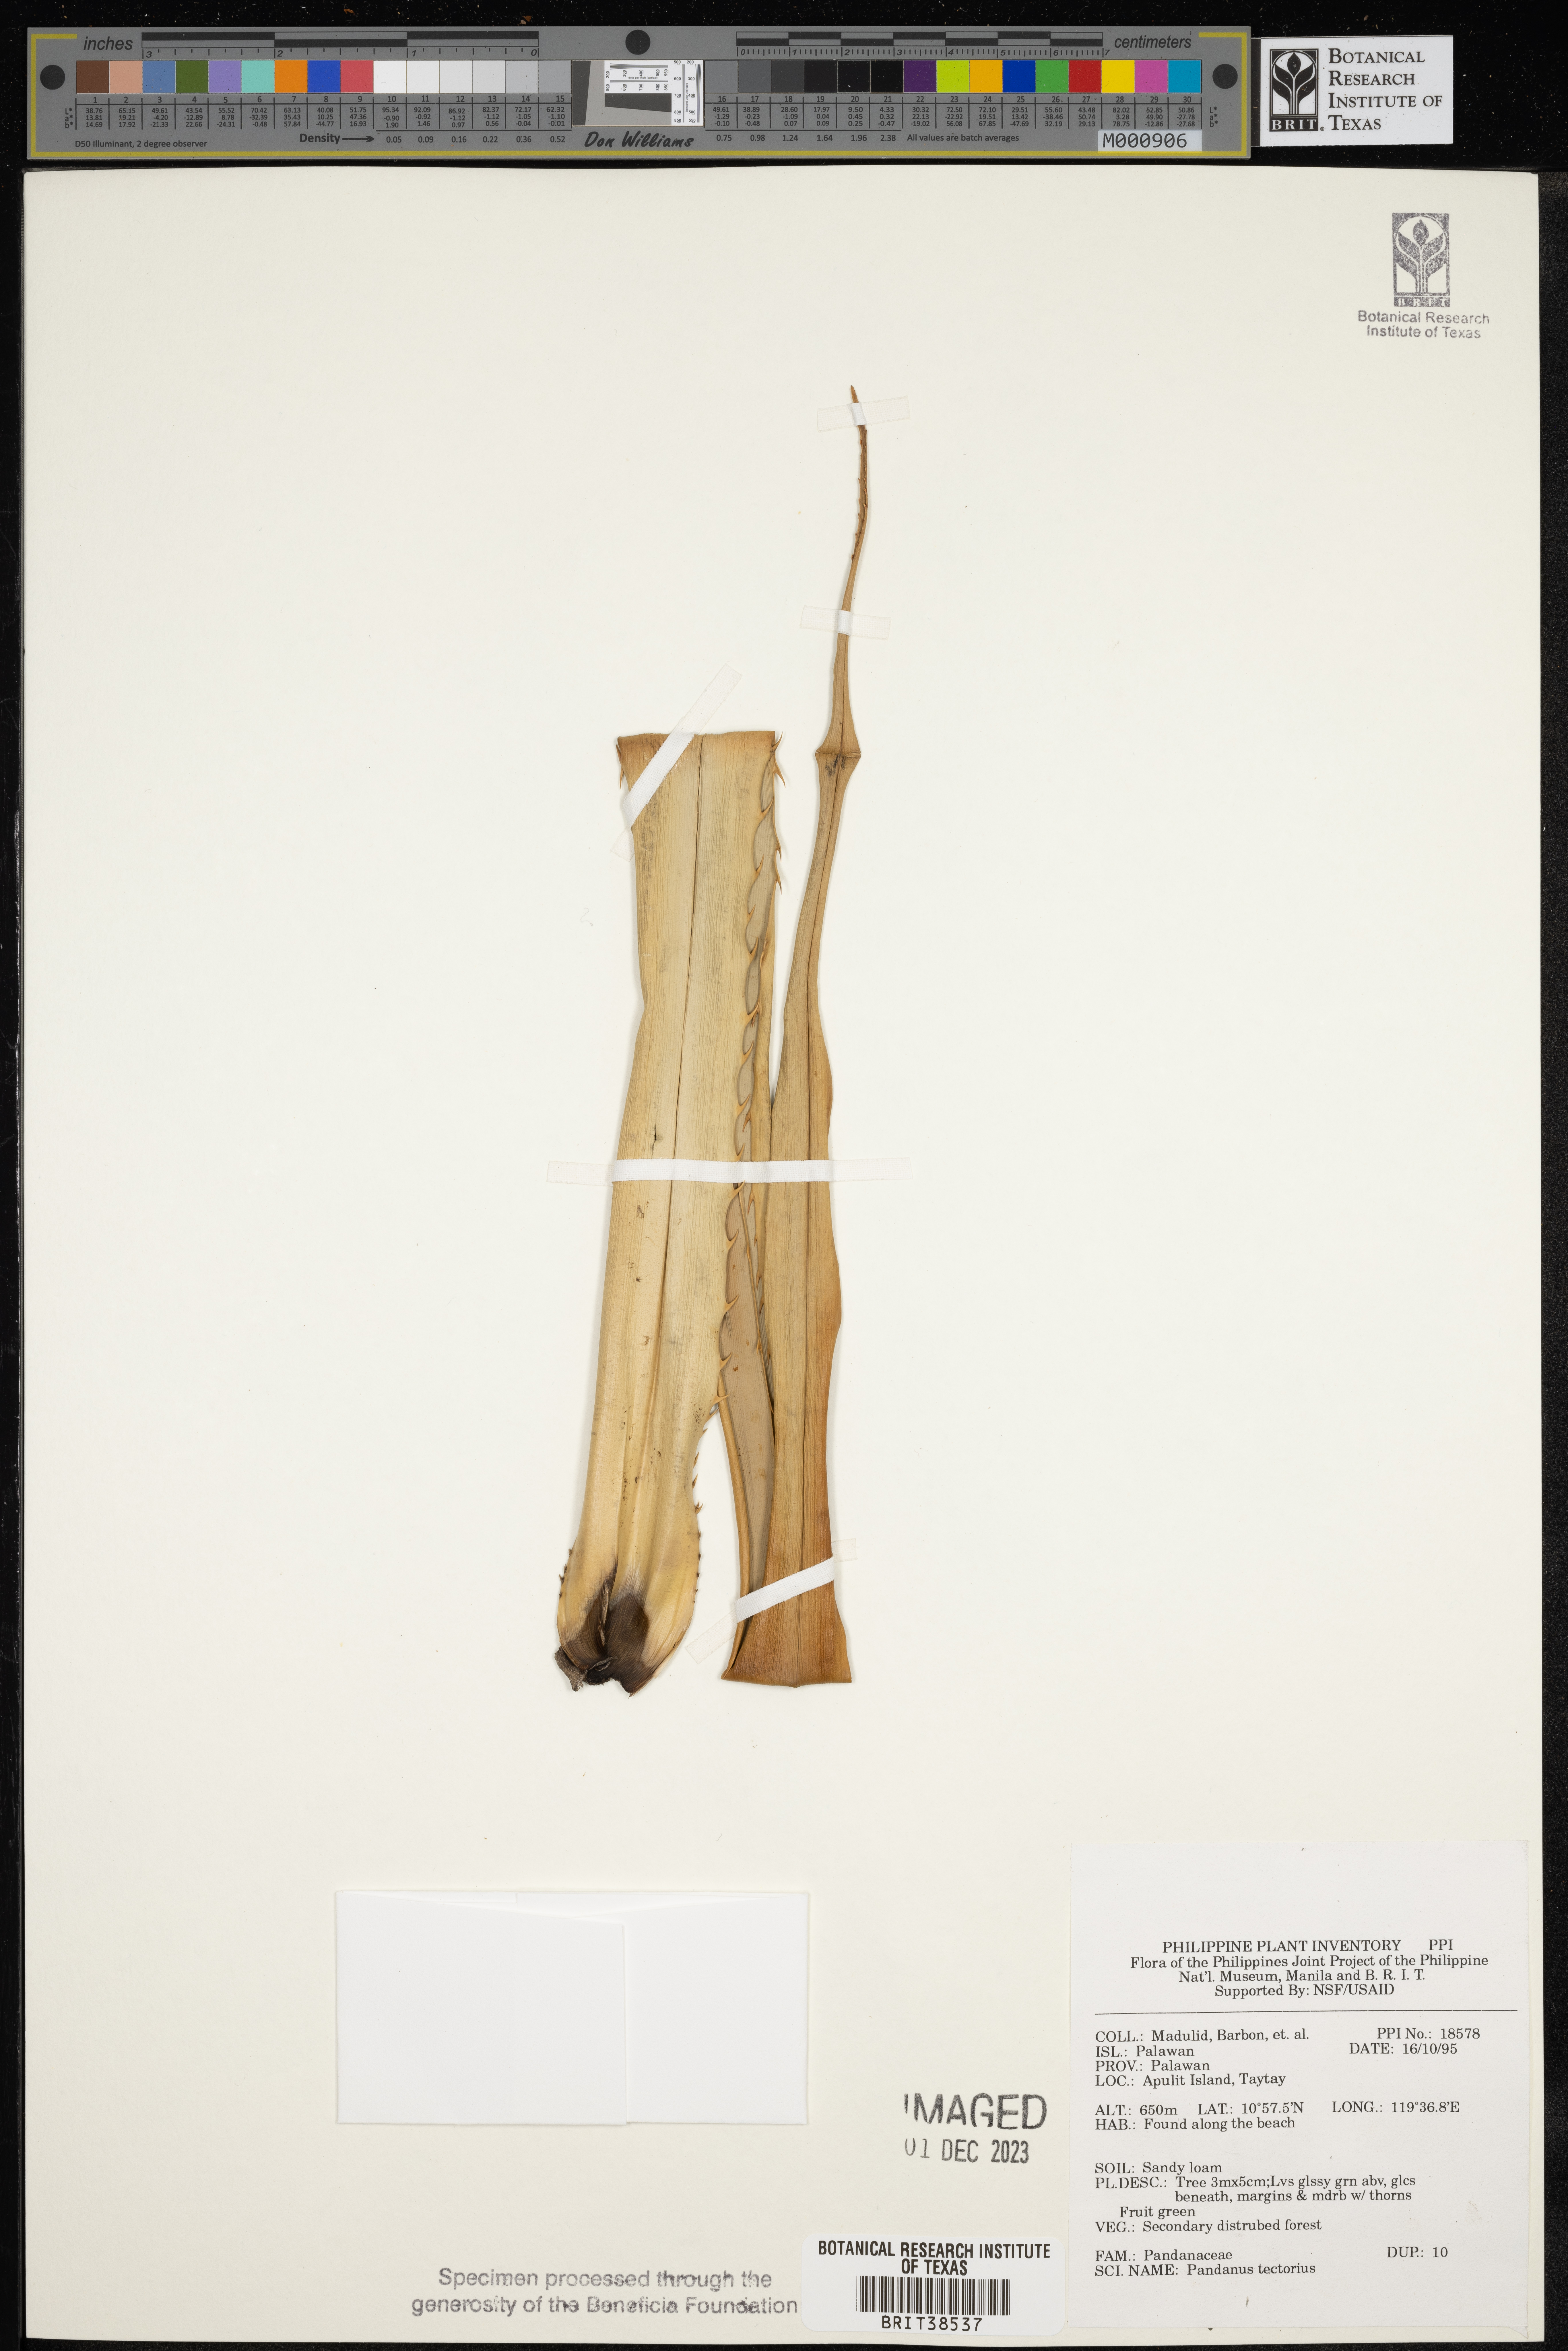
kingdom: Plantae
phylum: Tracheophyta
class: Liliopsida
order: Pandanales
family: Pandanaceae
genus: Pandanus
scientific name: Pandanus tectorius
